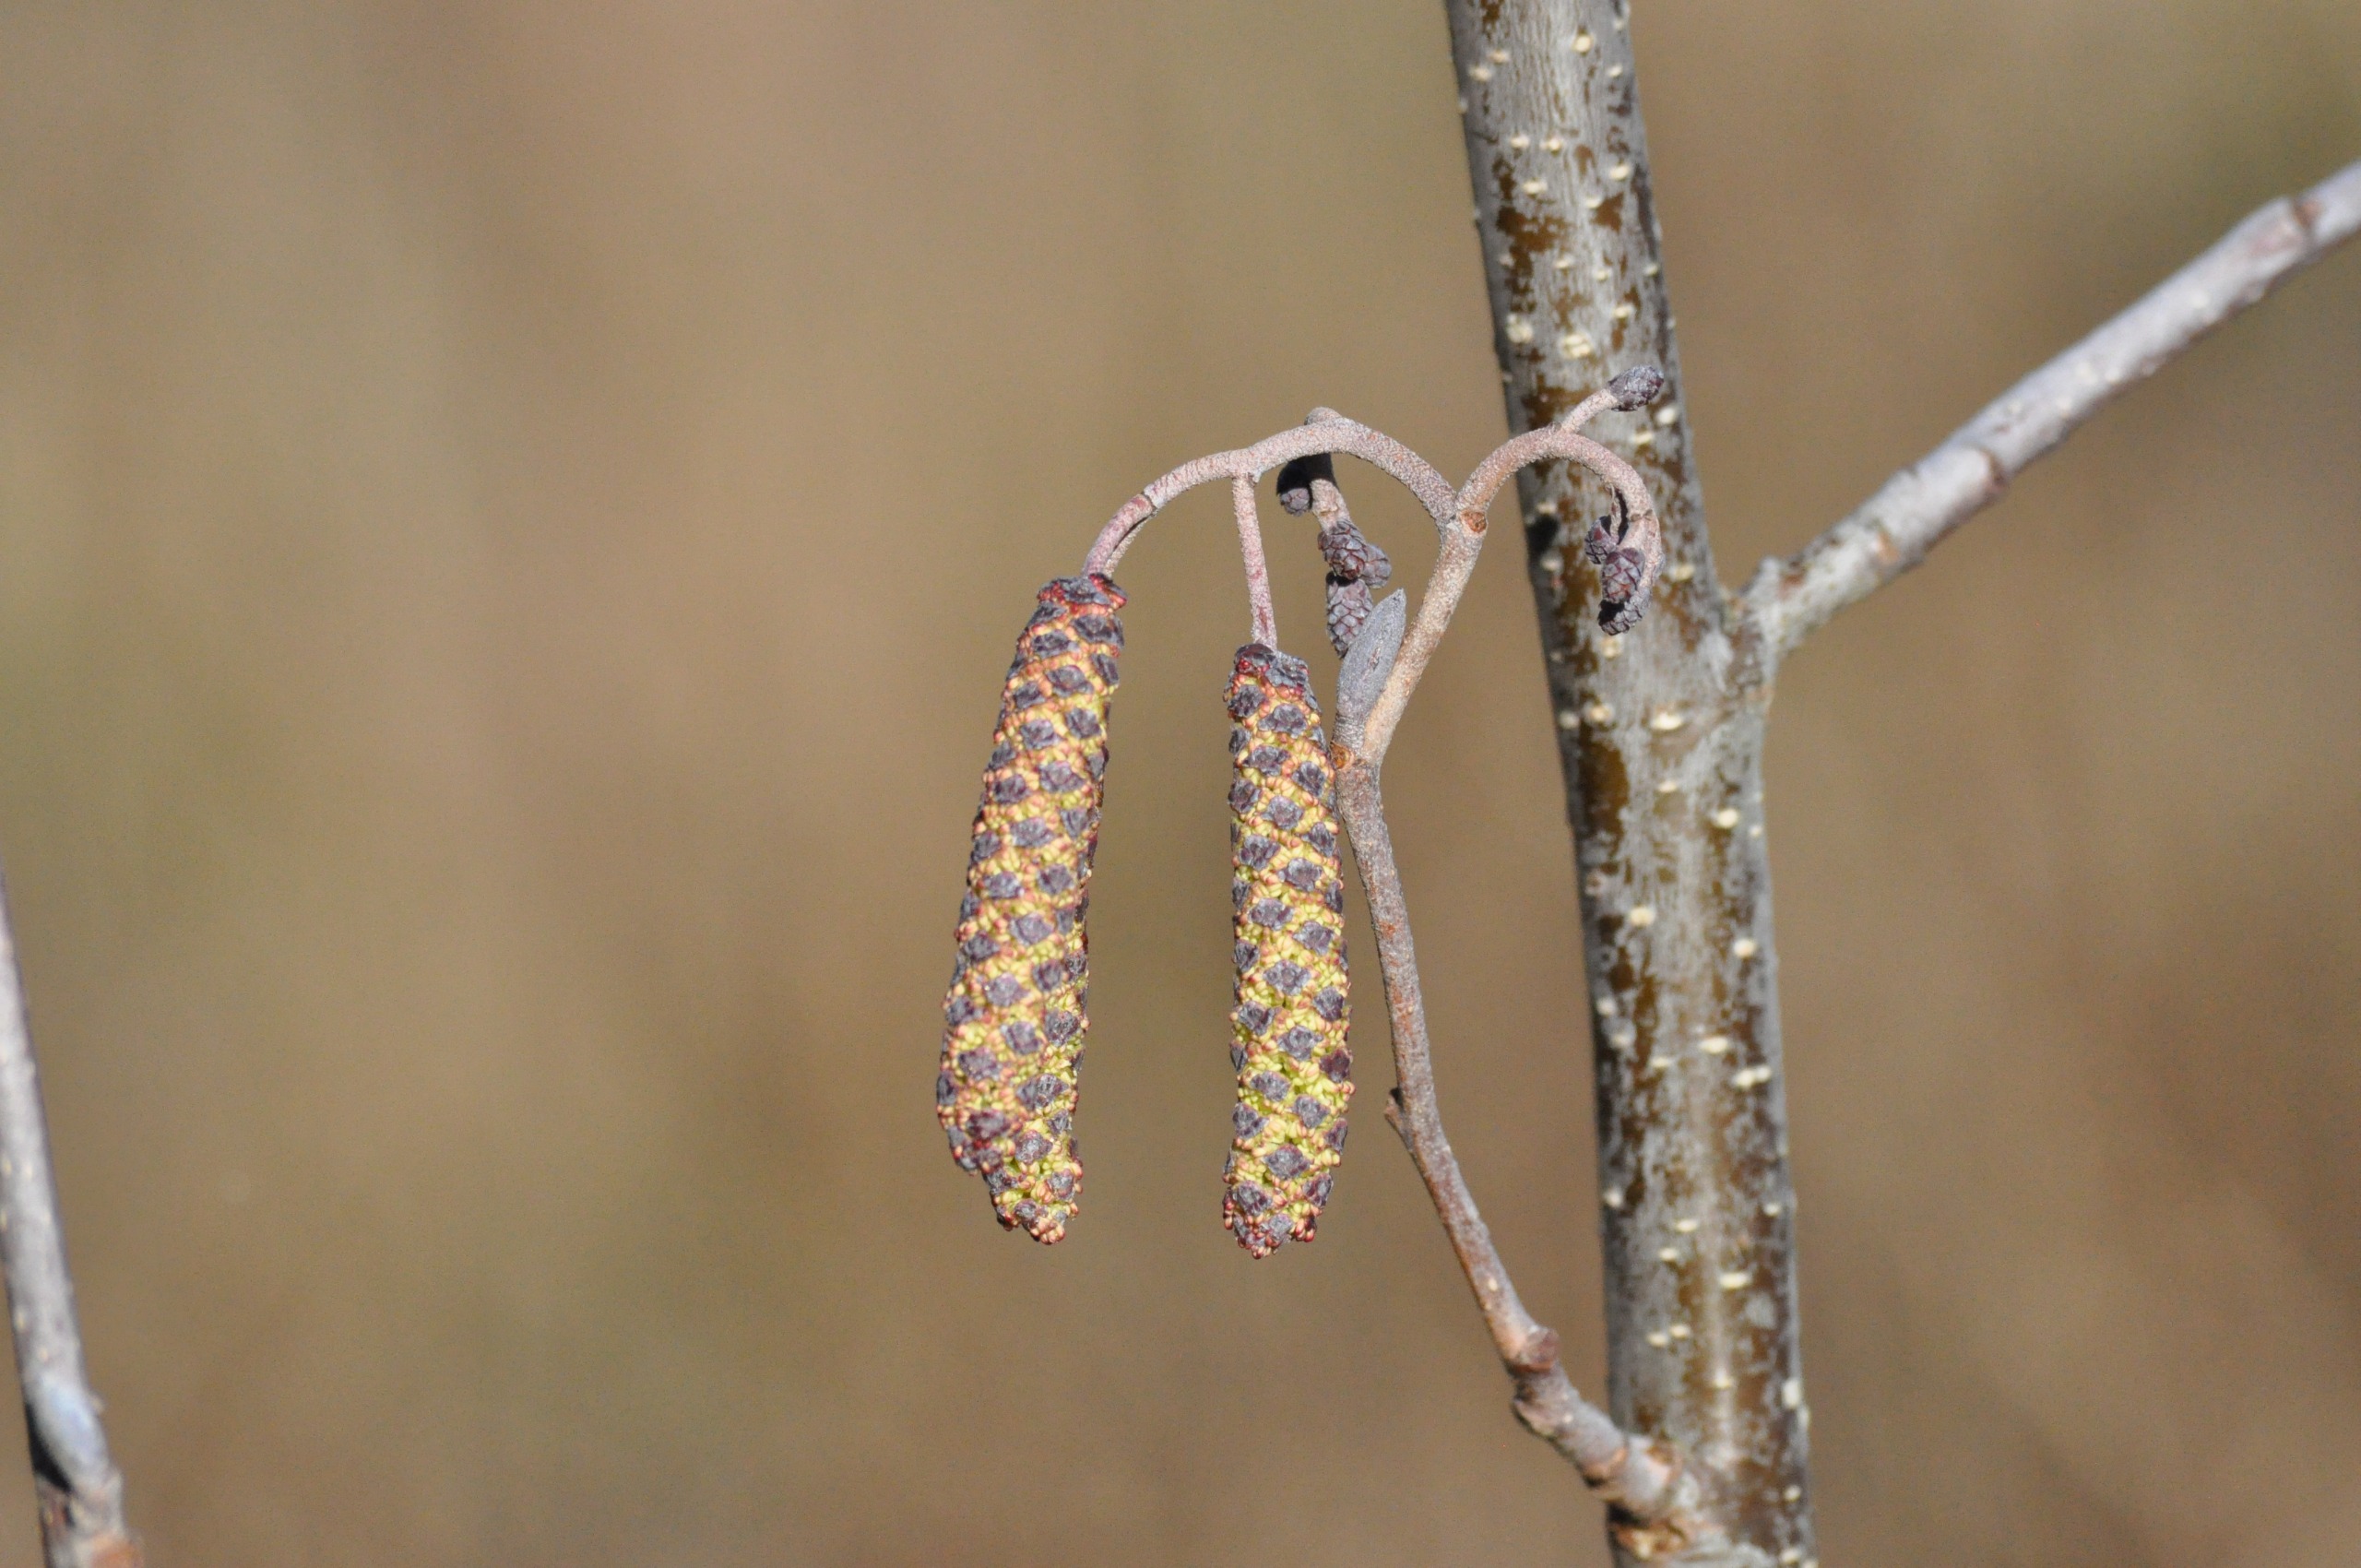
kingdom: Plantae
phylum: Tracheophyta
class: Magnoliopsida
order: Fagales
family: Betulaceae
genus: Alnus
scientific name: Alnus glutinosa
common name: Rød-el
